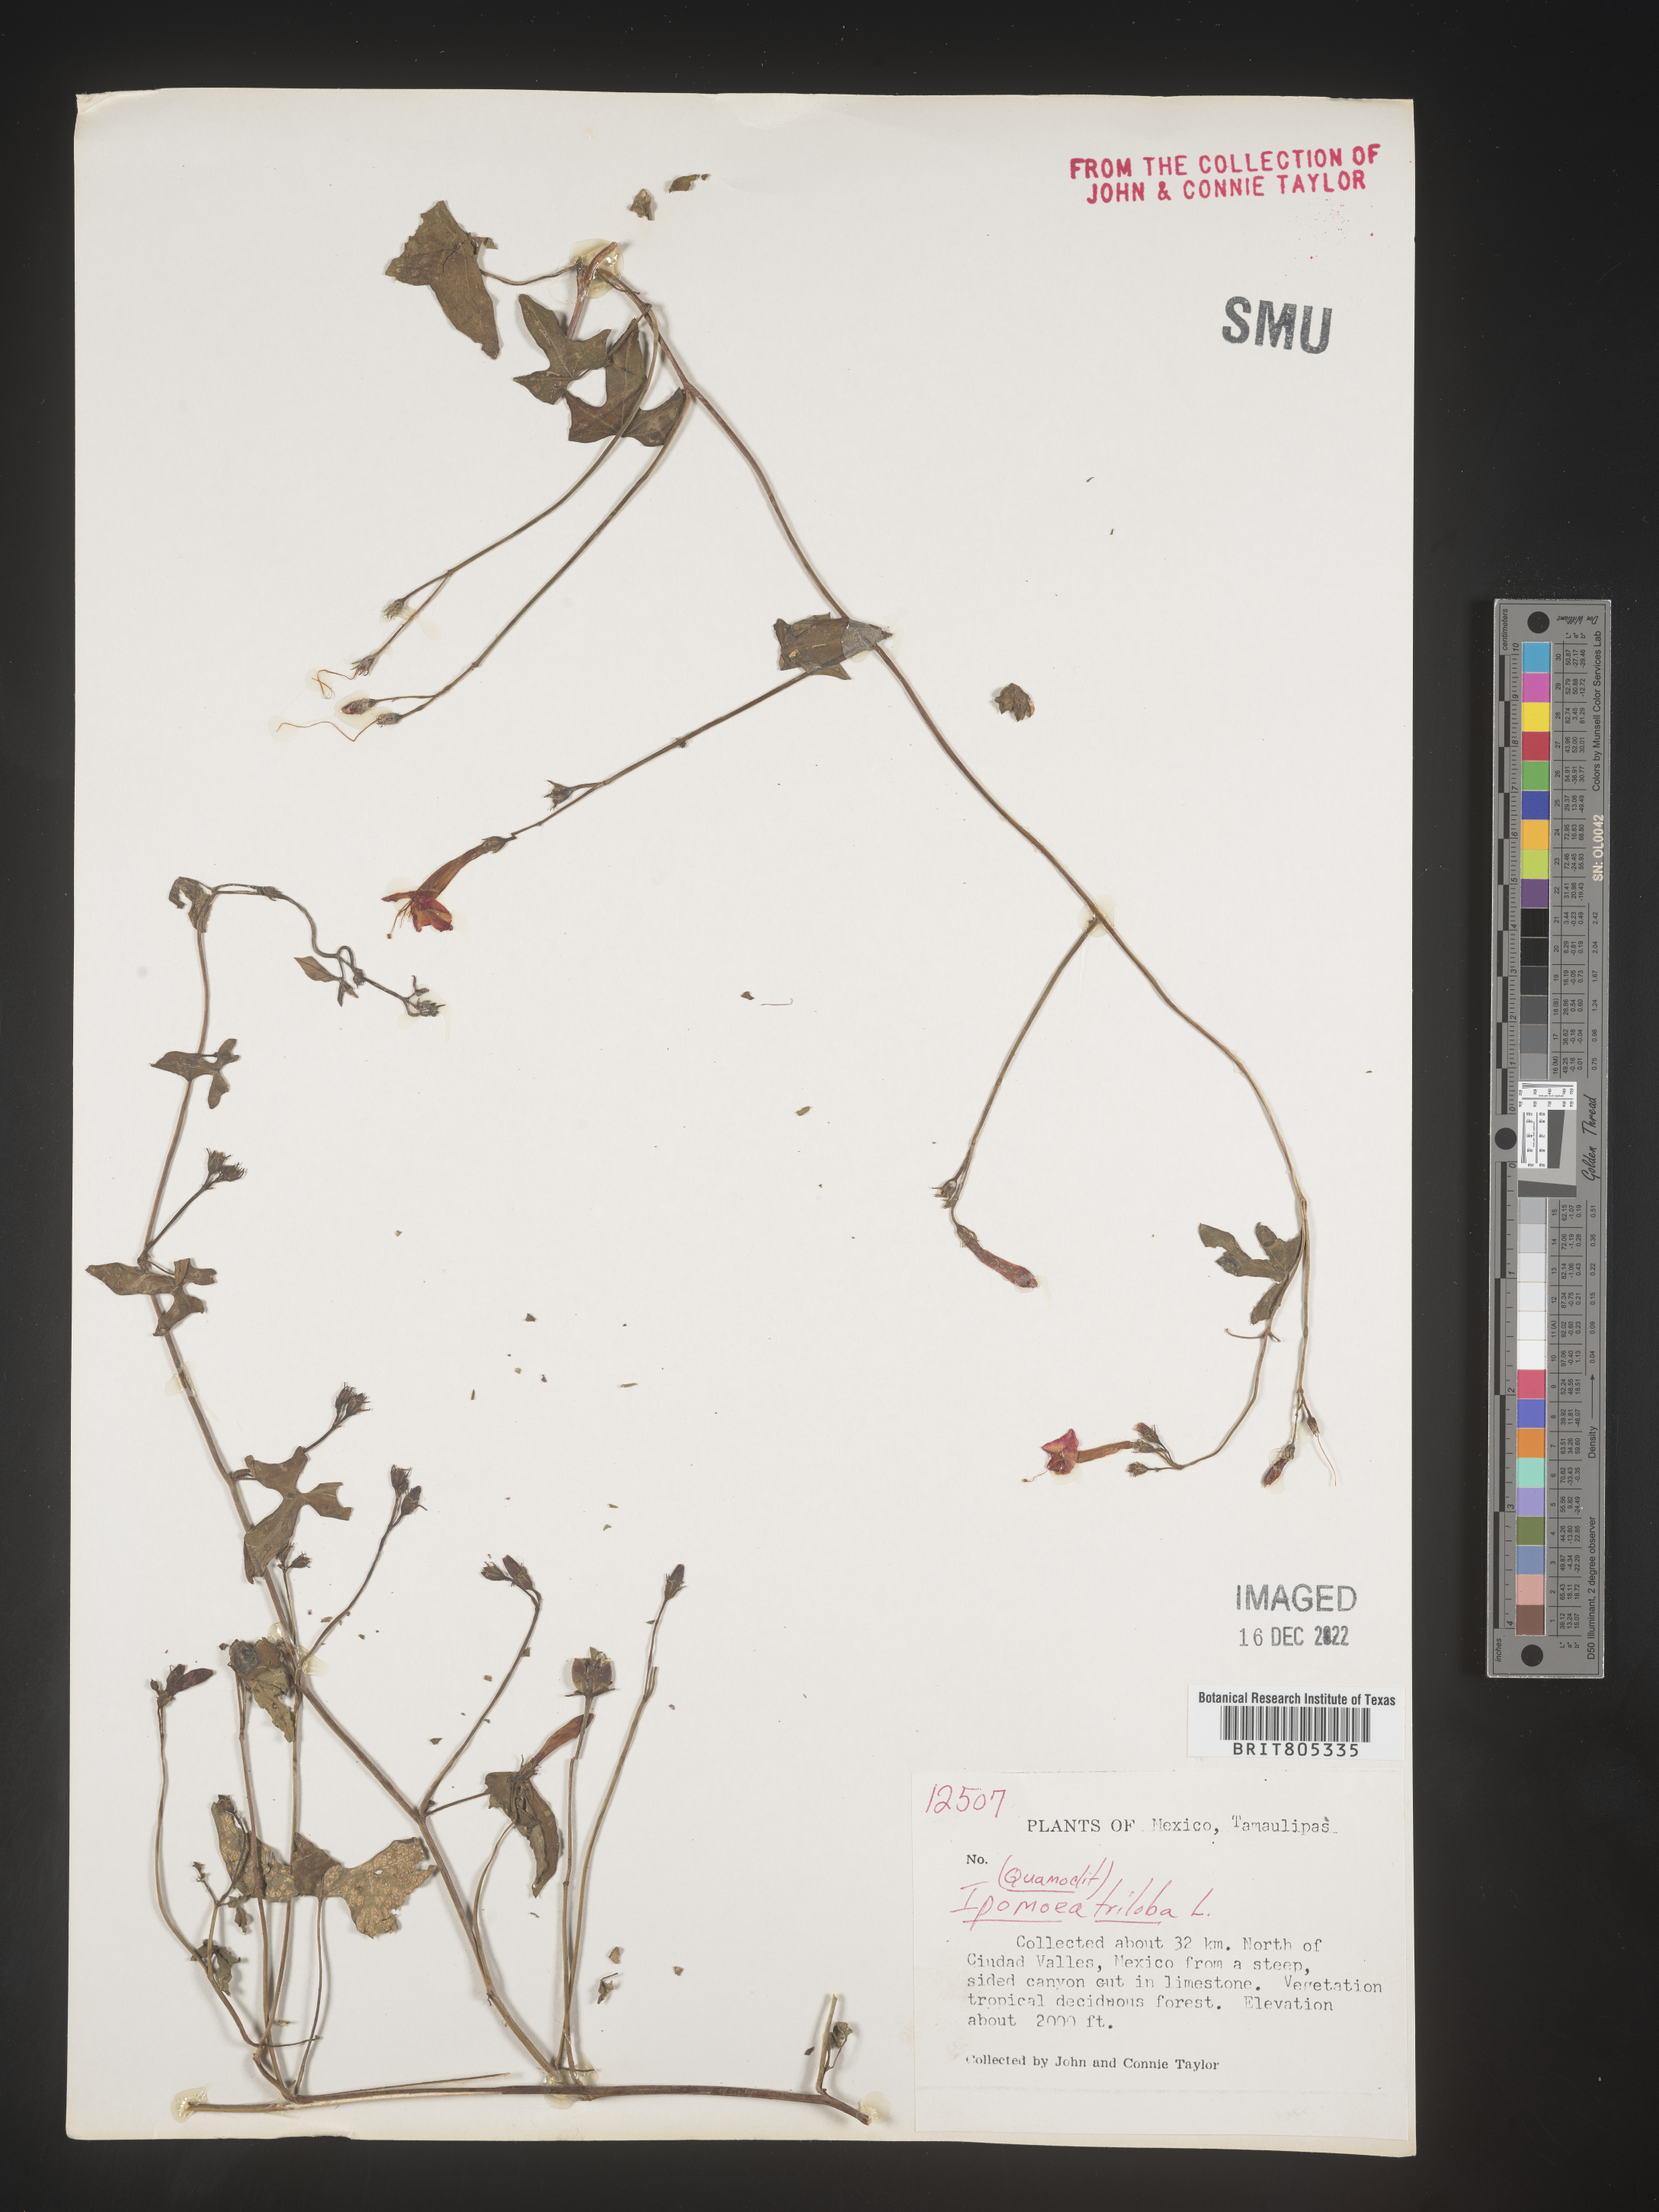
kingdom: Plantae
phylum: Tracheophyta
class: Magnoliopsida
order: Solanales
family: Convolvulaceae
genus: Ipomoea
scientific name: Ipomoea
